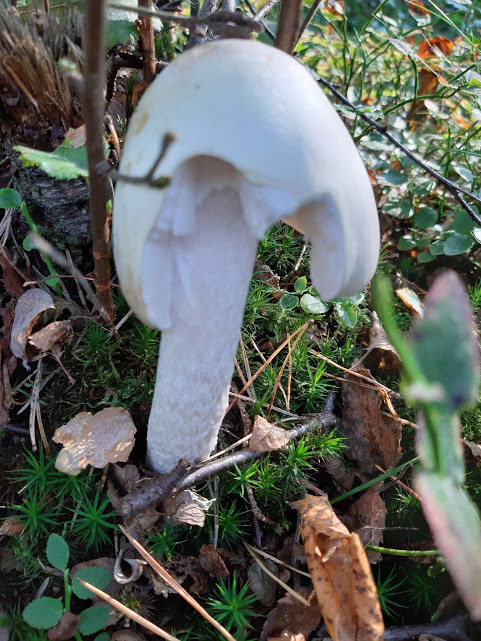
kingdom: Fungi
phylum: Basidiomycota
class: Agaricomycetes
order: Agaricales
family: Amanitaceae
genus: Amanita
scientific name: Amanita virosa
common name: snehvid fluesvamp
